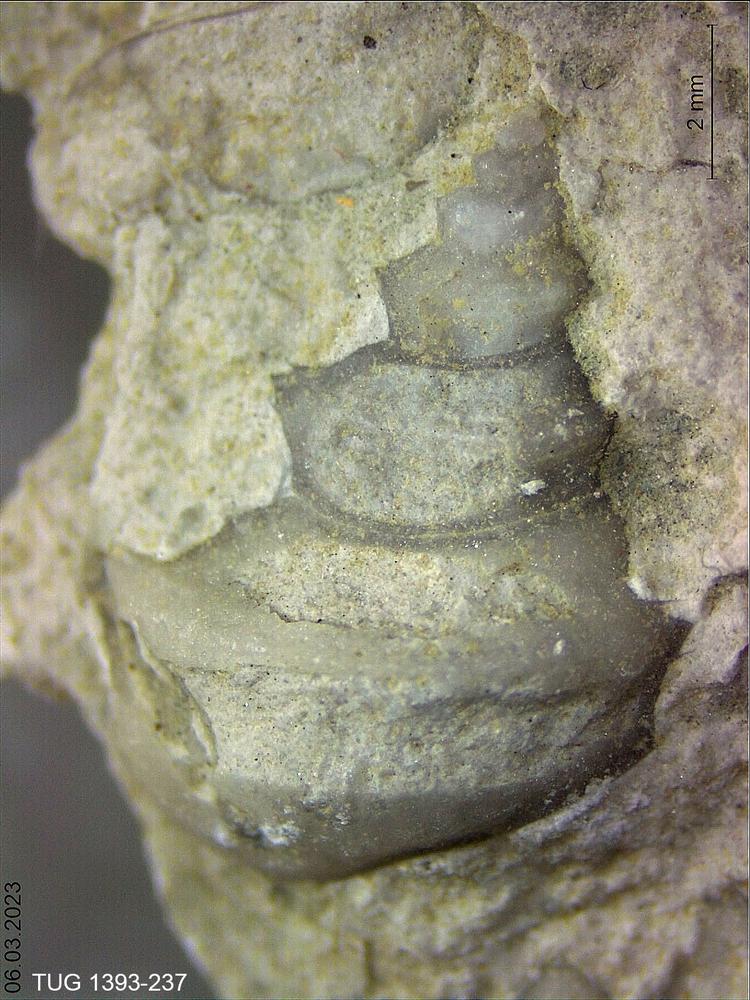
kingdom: Animalia
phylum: Mollusca
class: Gastropoda
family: Lophospiridae
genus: Lophospira
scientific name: Lophospira
